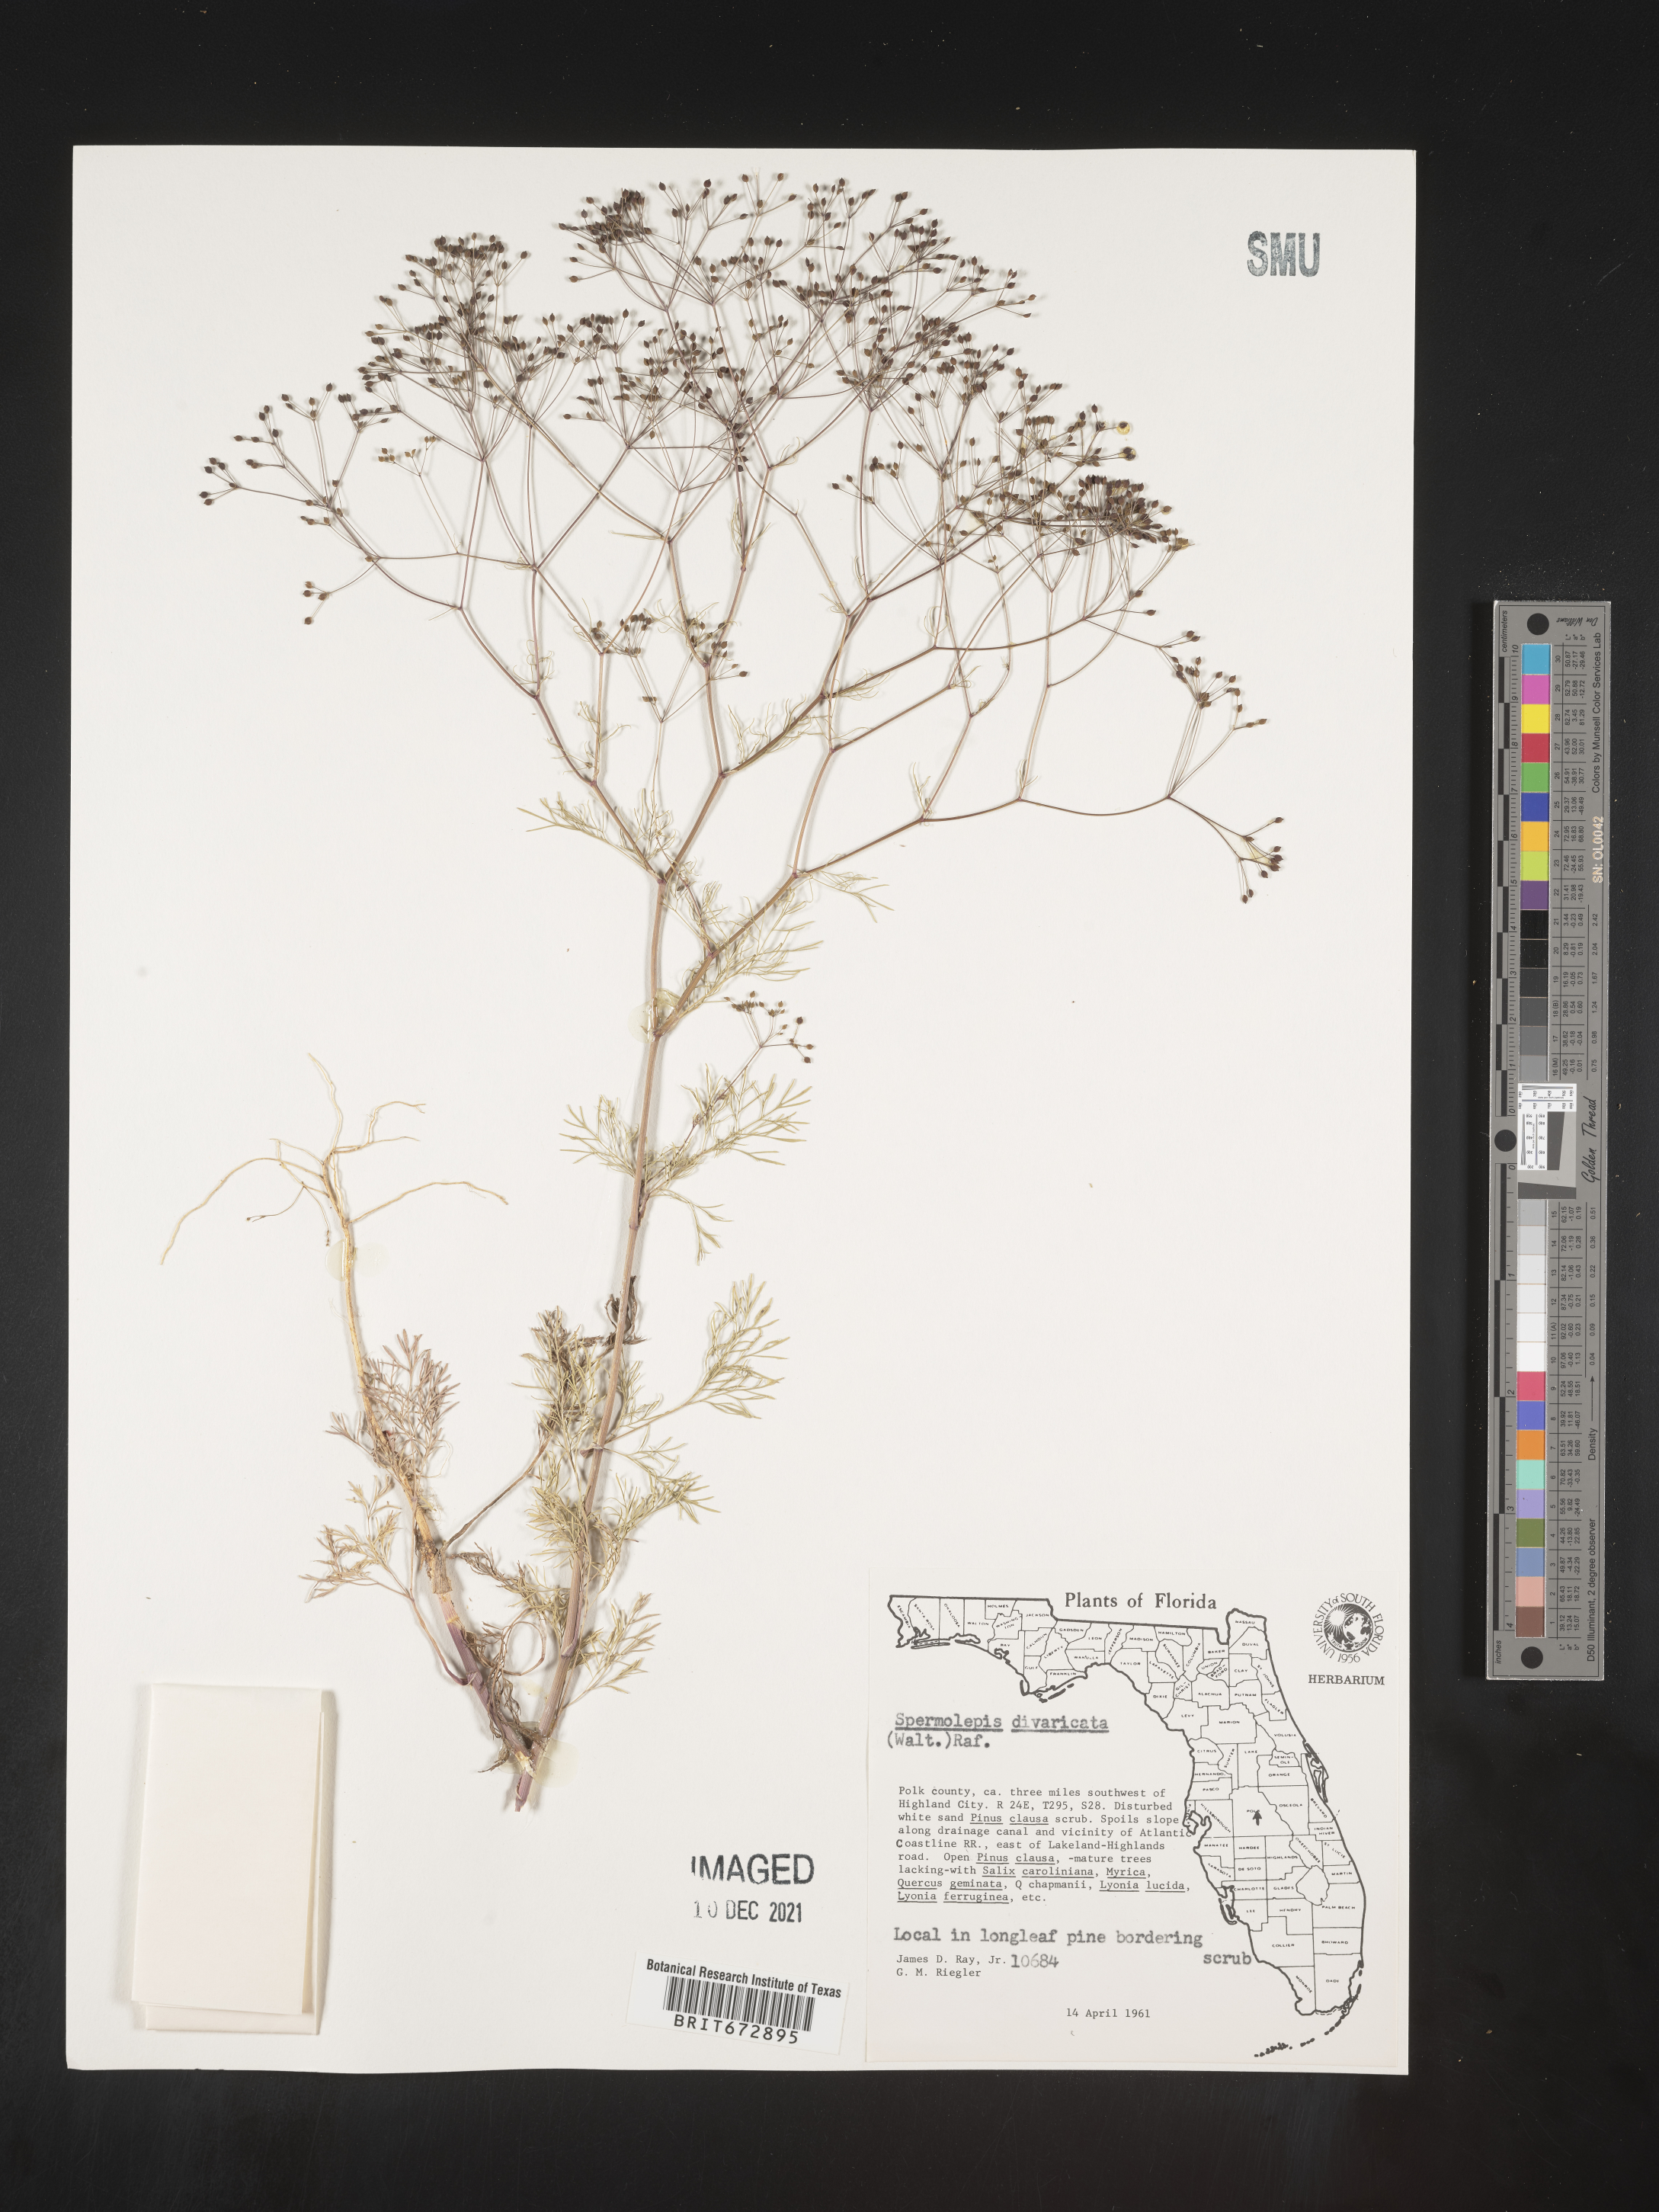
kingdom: Plantae
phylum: Tracheophyta
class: Magnoliopsida
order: Apiales
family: Apiaceae
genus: Spermolepis
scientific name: Spermolepis divaricata
